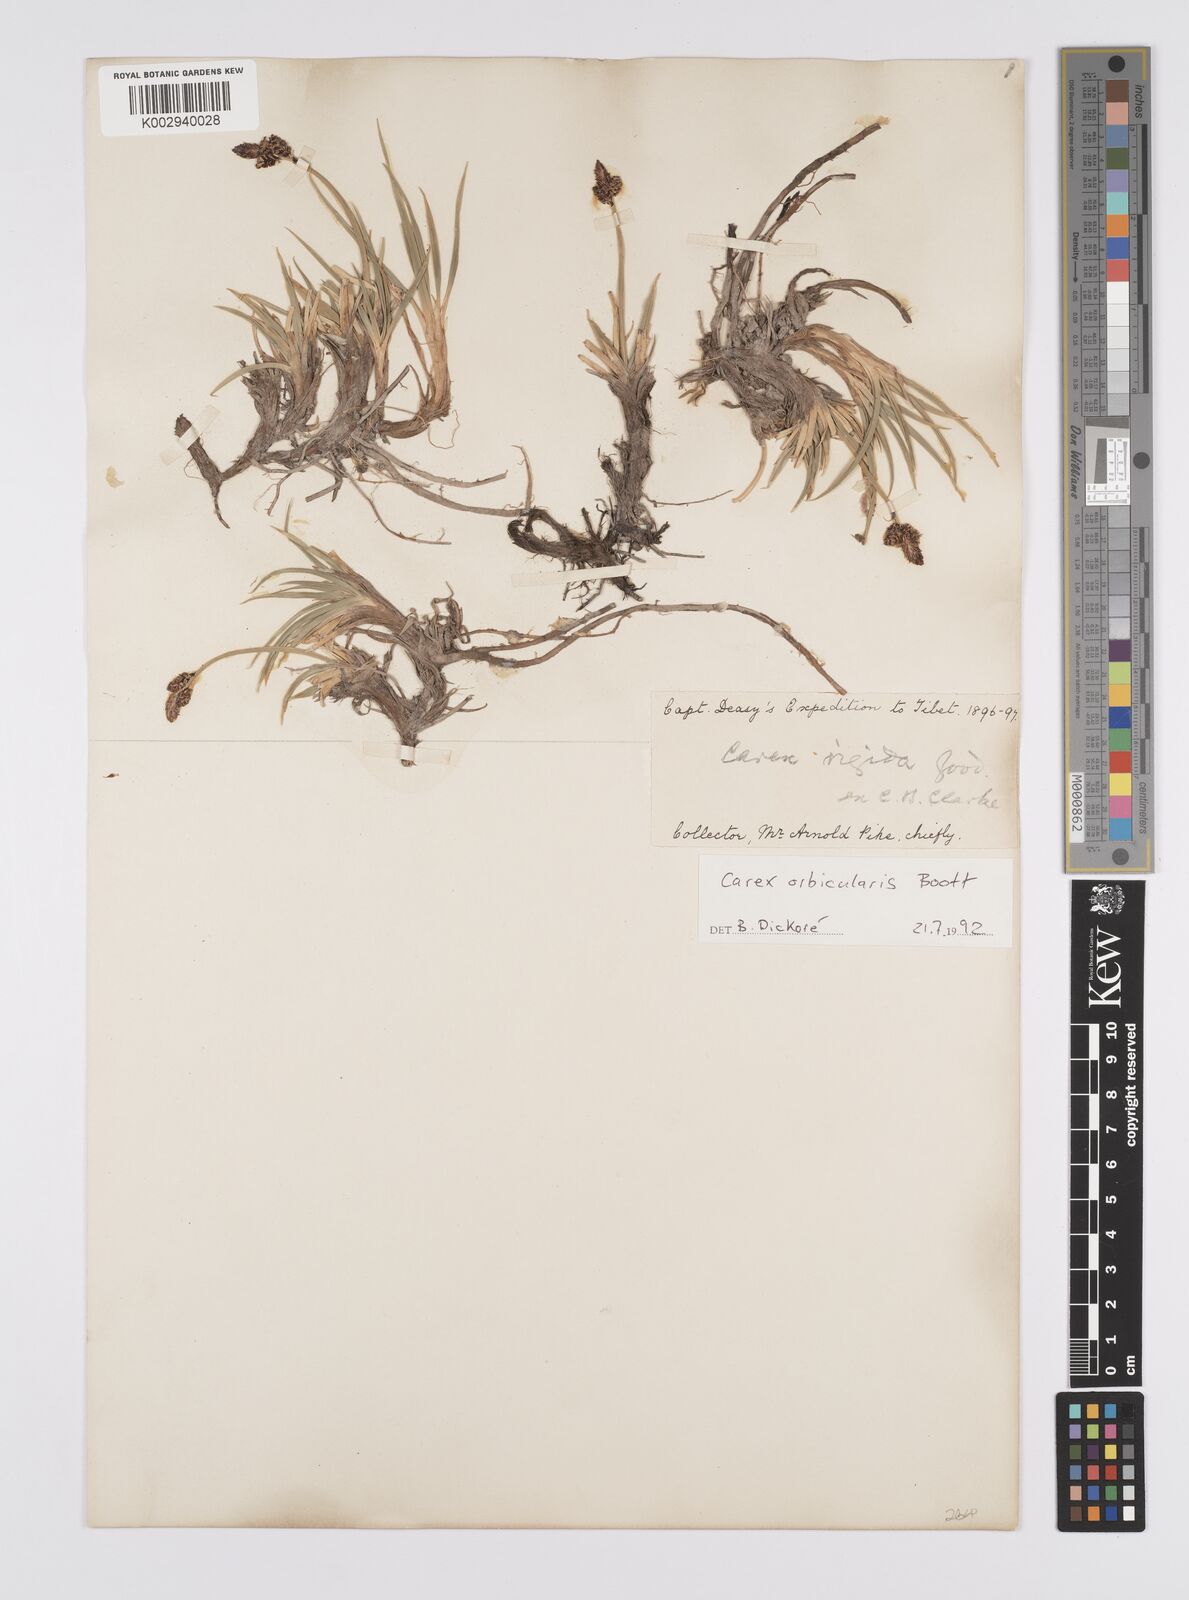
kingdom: Plantae
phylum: Tracheophyta
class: Liliopsida
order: Poales
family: Cyperaceae
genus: Carex
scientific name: Carex orbicularis
